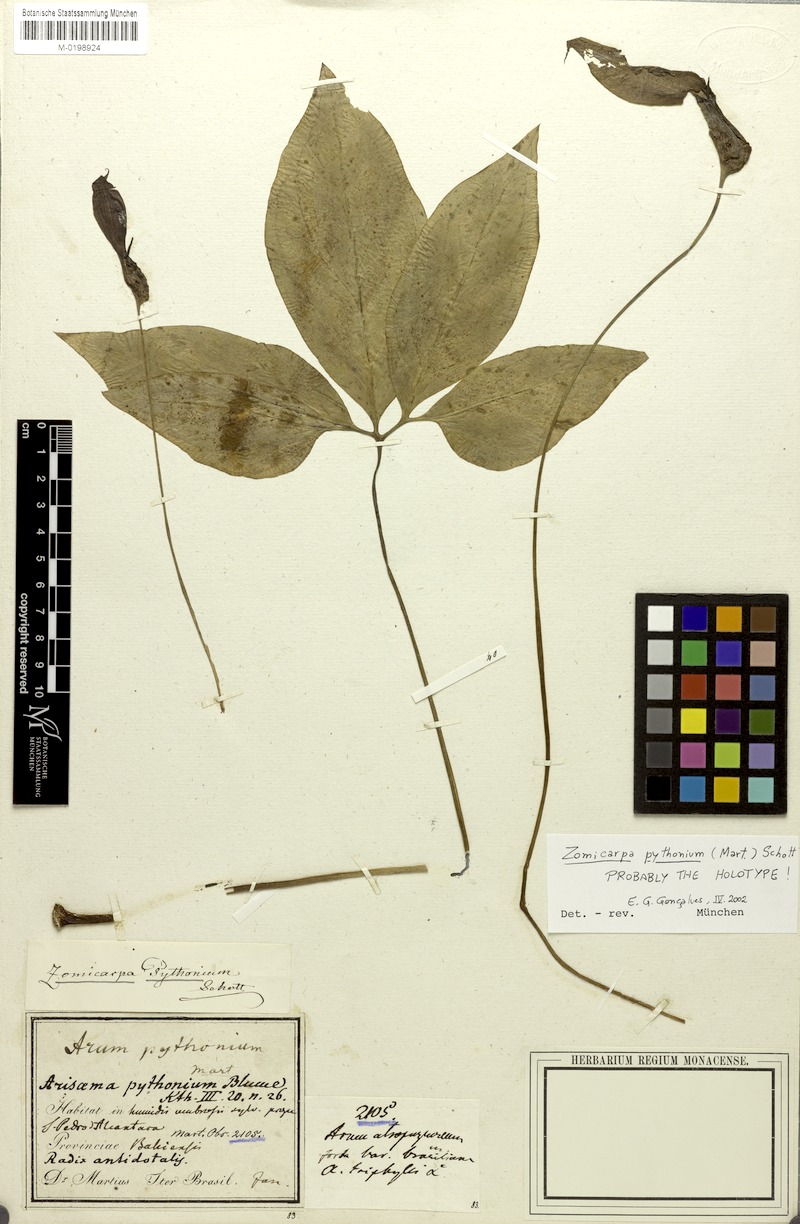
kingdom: Plantae
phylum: Tracheophyta
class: Liliopsida
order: Alismatales
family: Araceae
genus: Zomicarpa
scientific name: Zomicarpa pythonium
